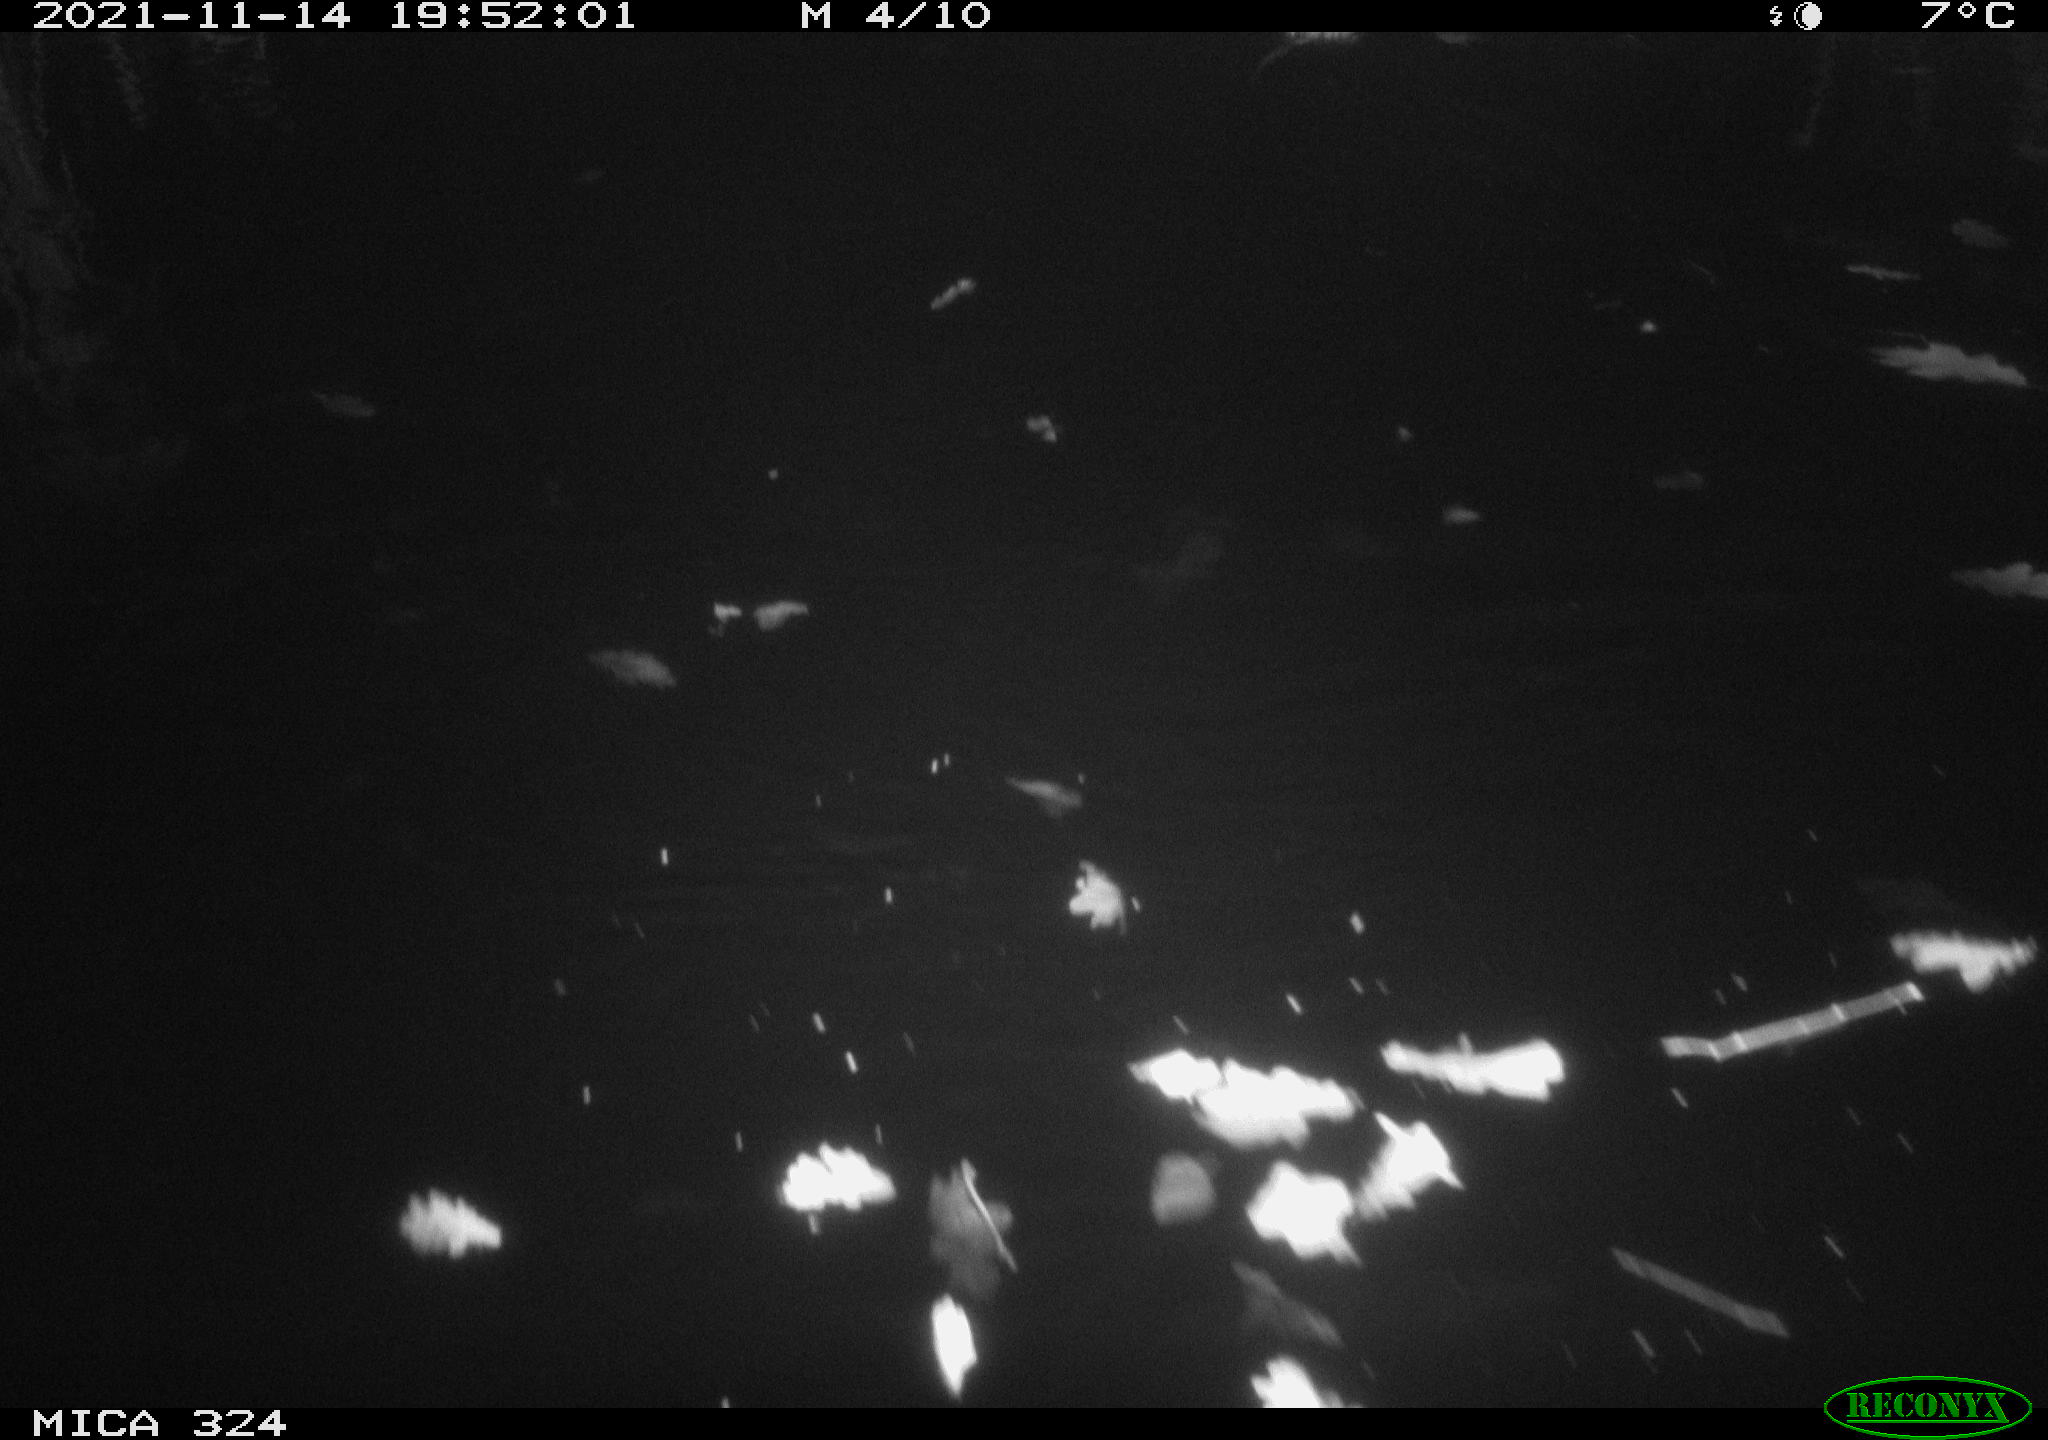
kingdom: Animalia
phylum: Chordata
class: Mammalia
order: Rodentia
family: Cricetidae
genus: Ondatra
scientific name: Ondatra zibethicus
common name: Muskrat
